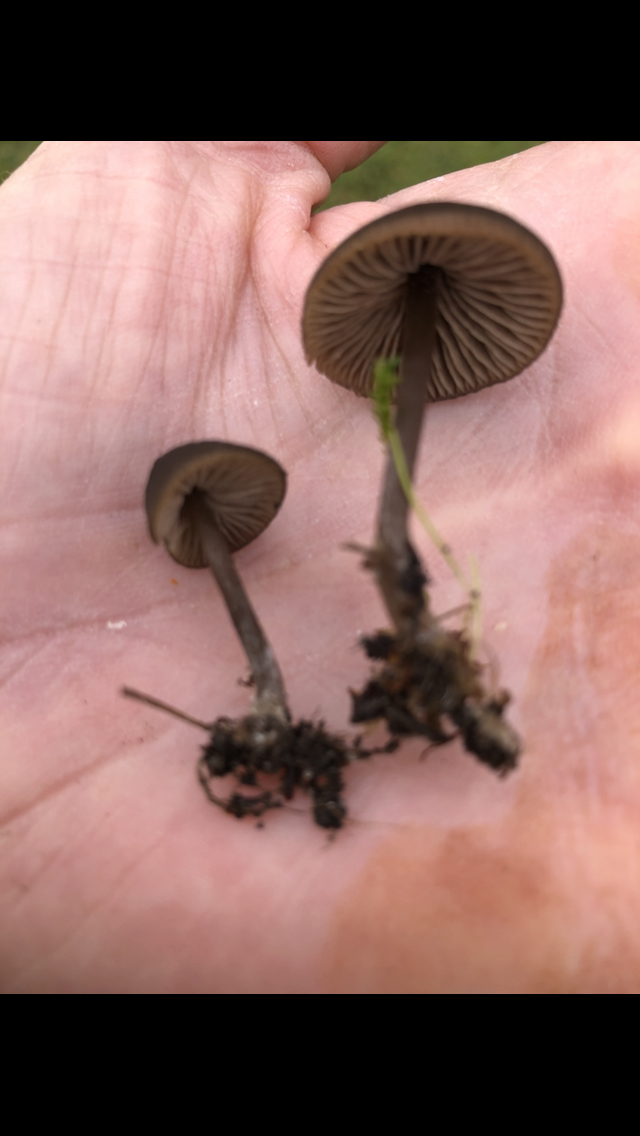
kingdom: Fungi
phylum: Basidiomycota
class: Agaricomycetes
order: Agaricales
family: Entolomataceae
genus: Entoloma
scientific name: Entoloma
